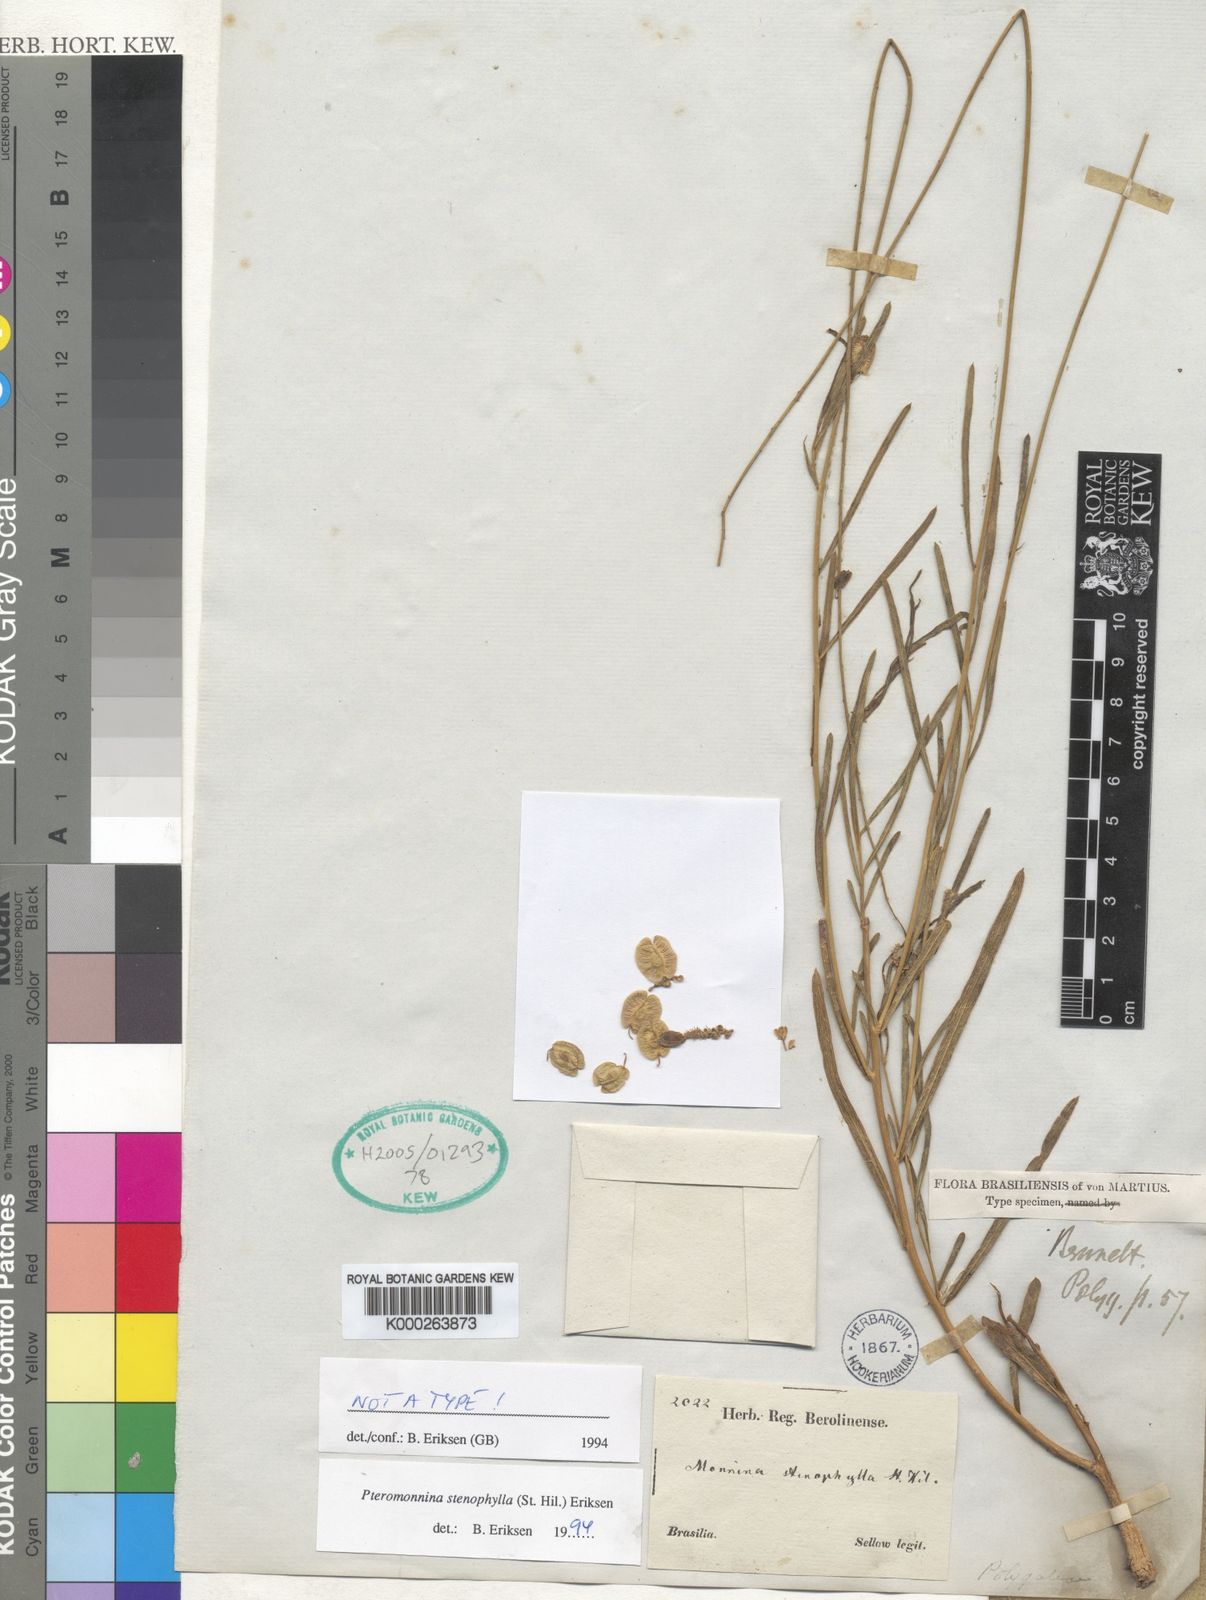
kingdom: Plantae
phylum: Tracheophyta
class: Magnoliopsida
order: Fabales
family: Polygalaceae
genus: Monnina
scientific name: Monnina
